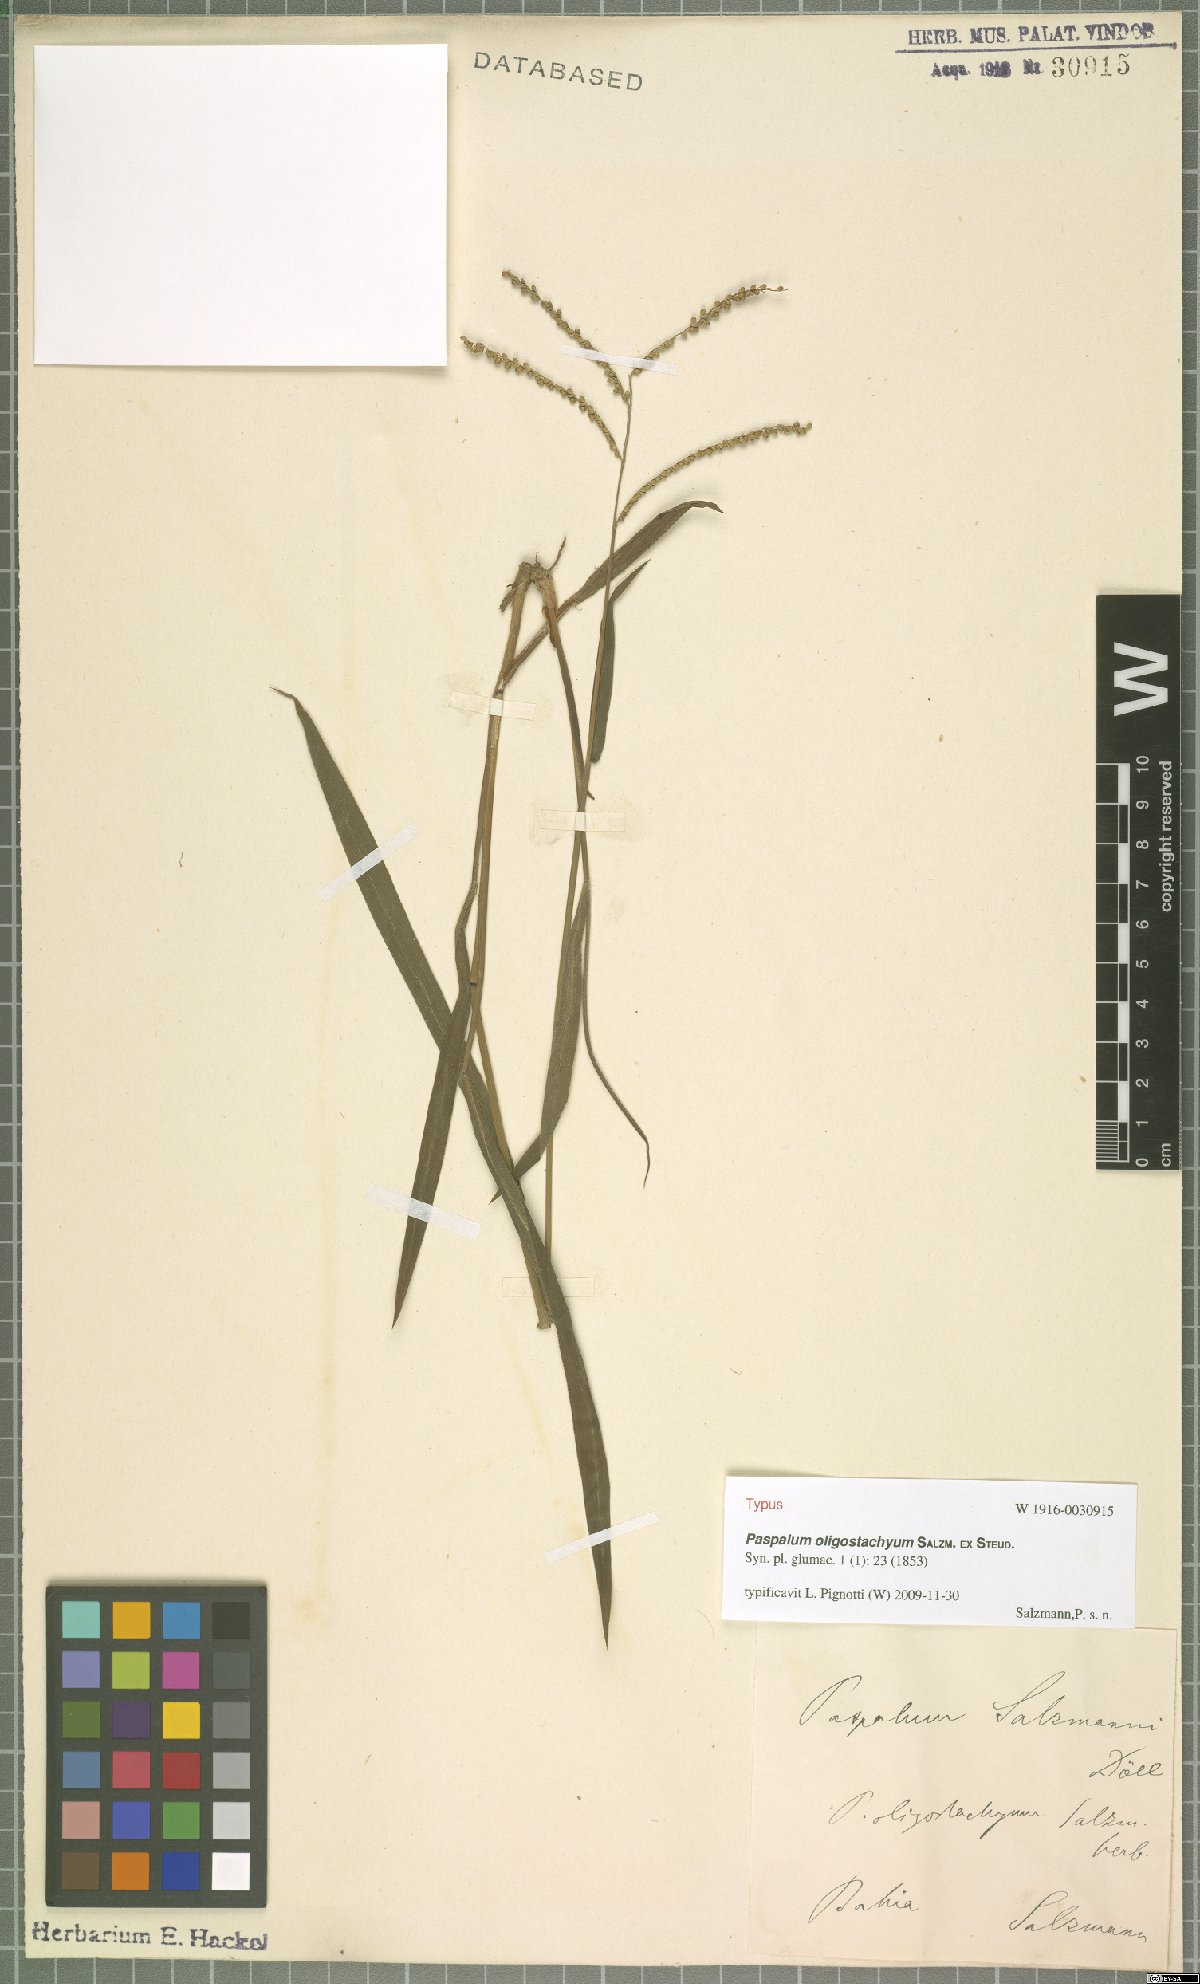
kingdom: Plantae
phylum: Tracheophyta
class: Liliopsida
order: Poales
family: Poaceae
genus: Paspalum
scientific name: Paspalum oligostachyum
